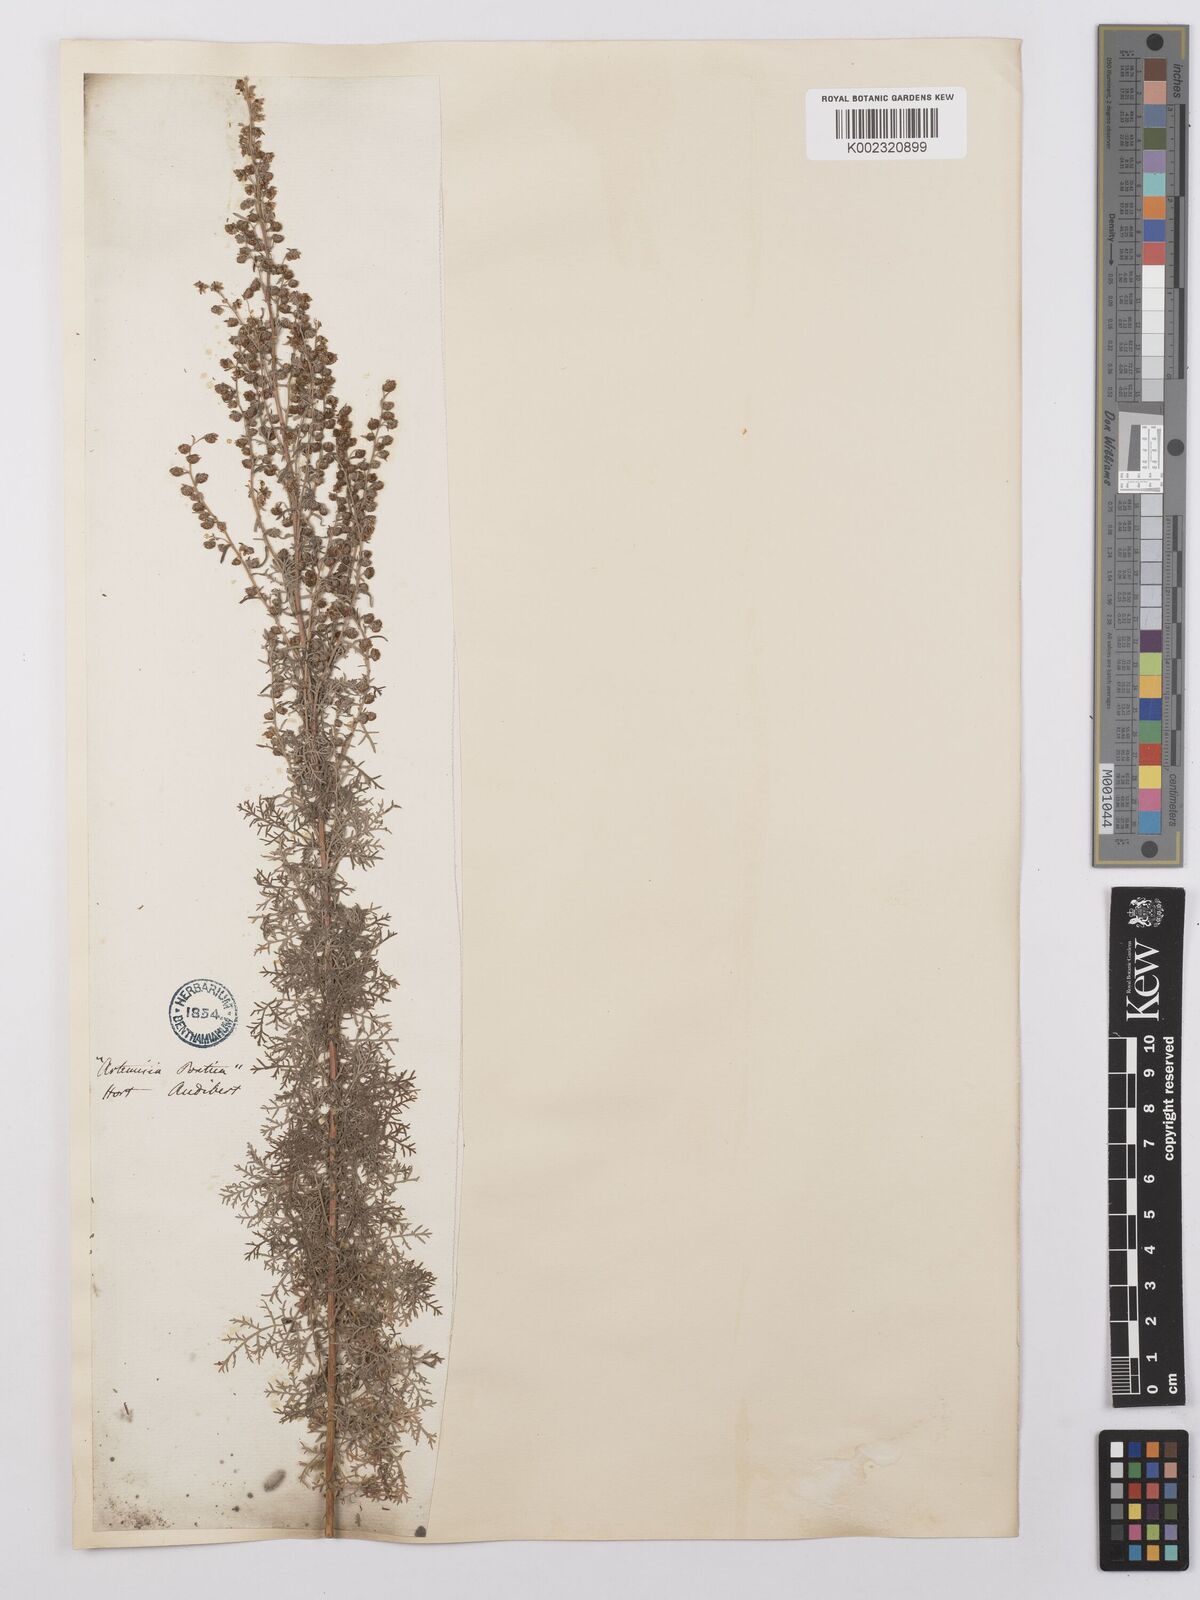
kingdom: Plantae
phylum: Tracheophyta
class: Magnoliopsida
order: Asterales
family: Asteraceae
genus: Artemisia
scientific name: Artemisia pontica
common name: Roman wormwood
